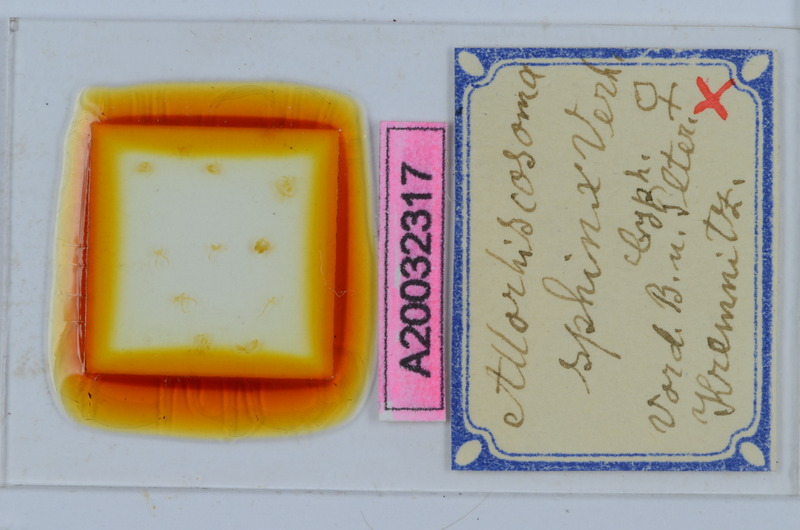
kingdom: Animalia
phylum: Arthropoda
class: Diplopoda
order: Chordeumatida
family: Attemsiidae
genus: Allorhiscosoma
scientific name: Allorhiscosoma sphinx
